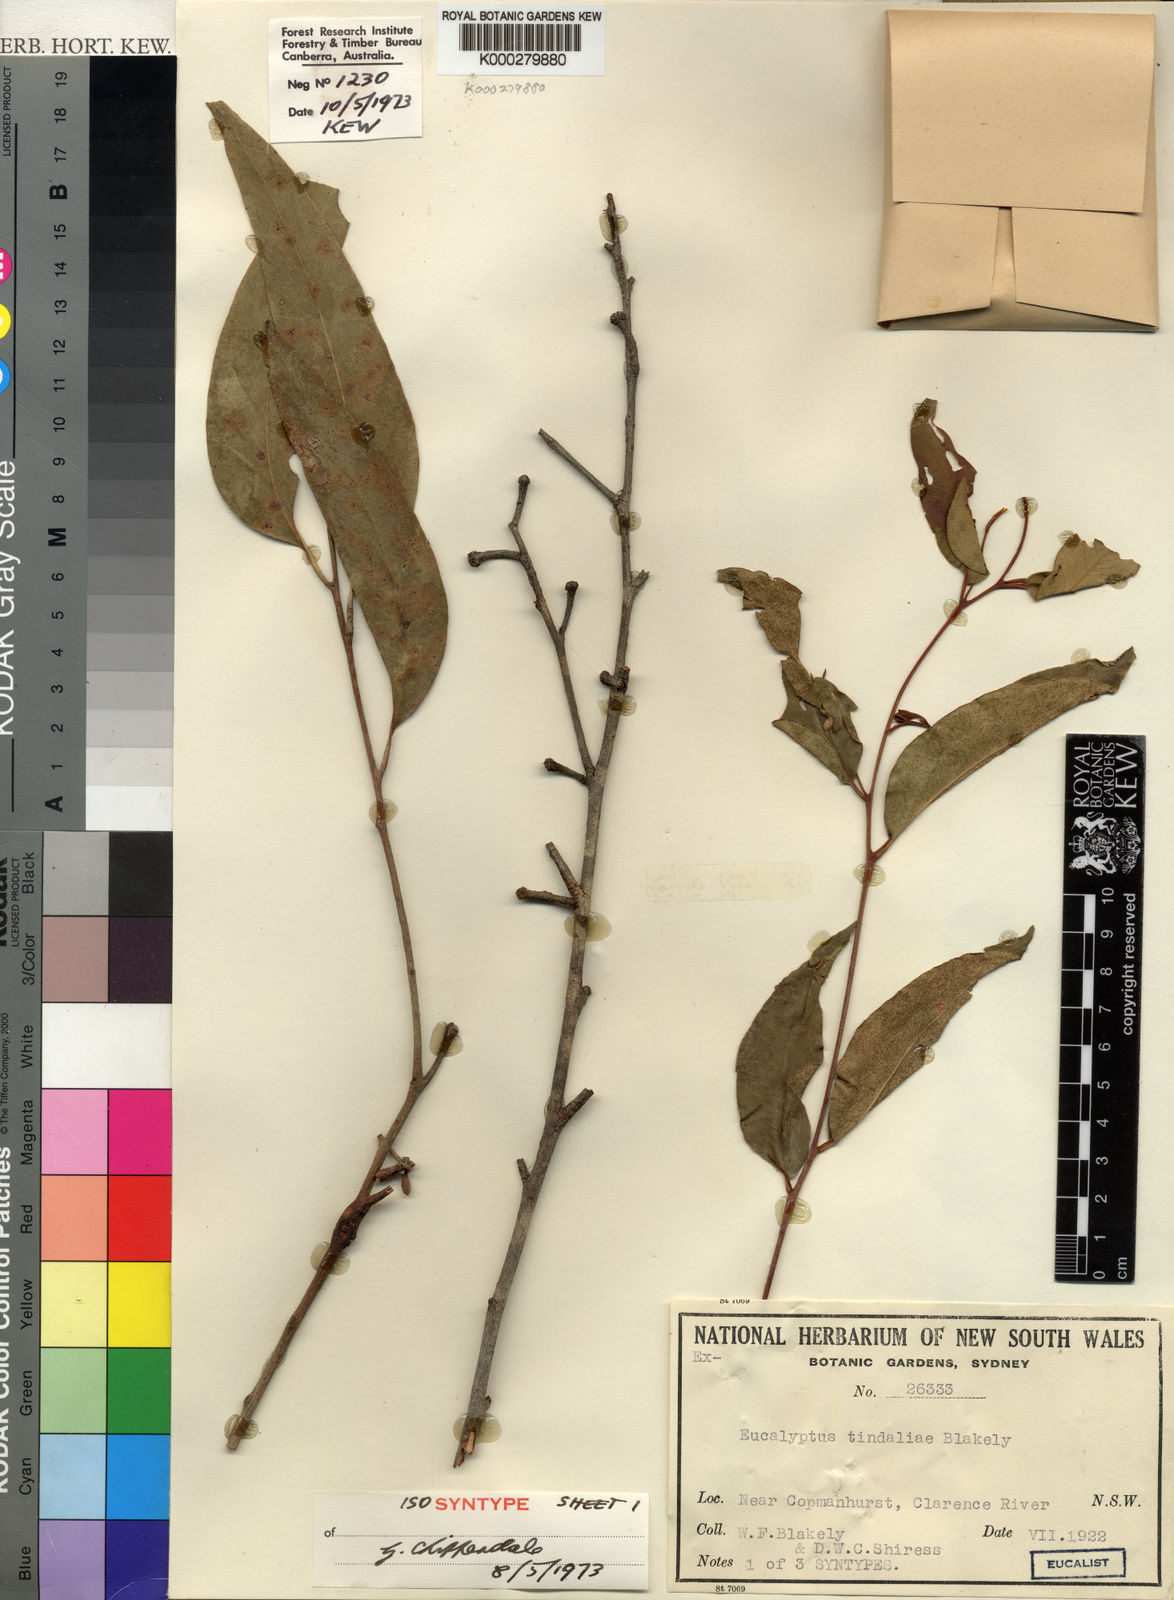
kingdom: Plantae
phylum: Tracheophyta
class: Magnoliopsida
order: Myrtales
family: Myrtaceae
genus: Eucalyptus
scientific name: Eucalyptus tindaliae
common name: Tindales stringybark
